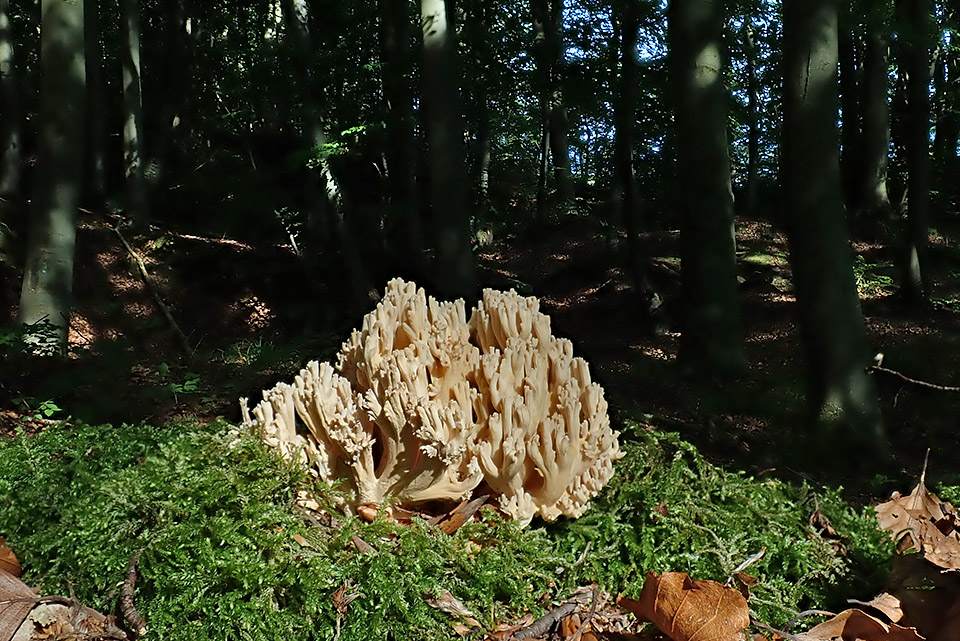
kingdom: Fungi
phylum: Basidiomycota
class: Agaricomycetes
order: Gomphales
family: Gomphaceae
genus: Ramaria
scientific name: Ramaria
